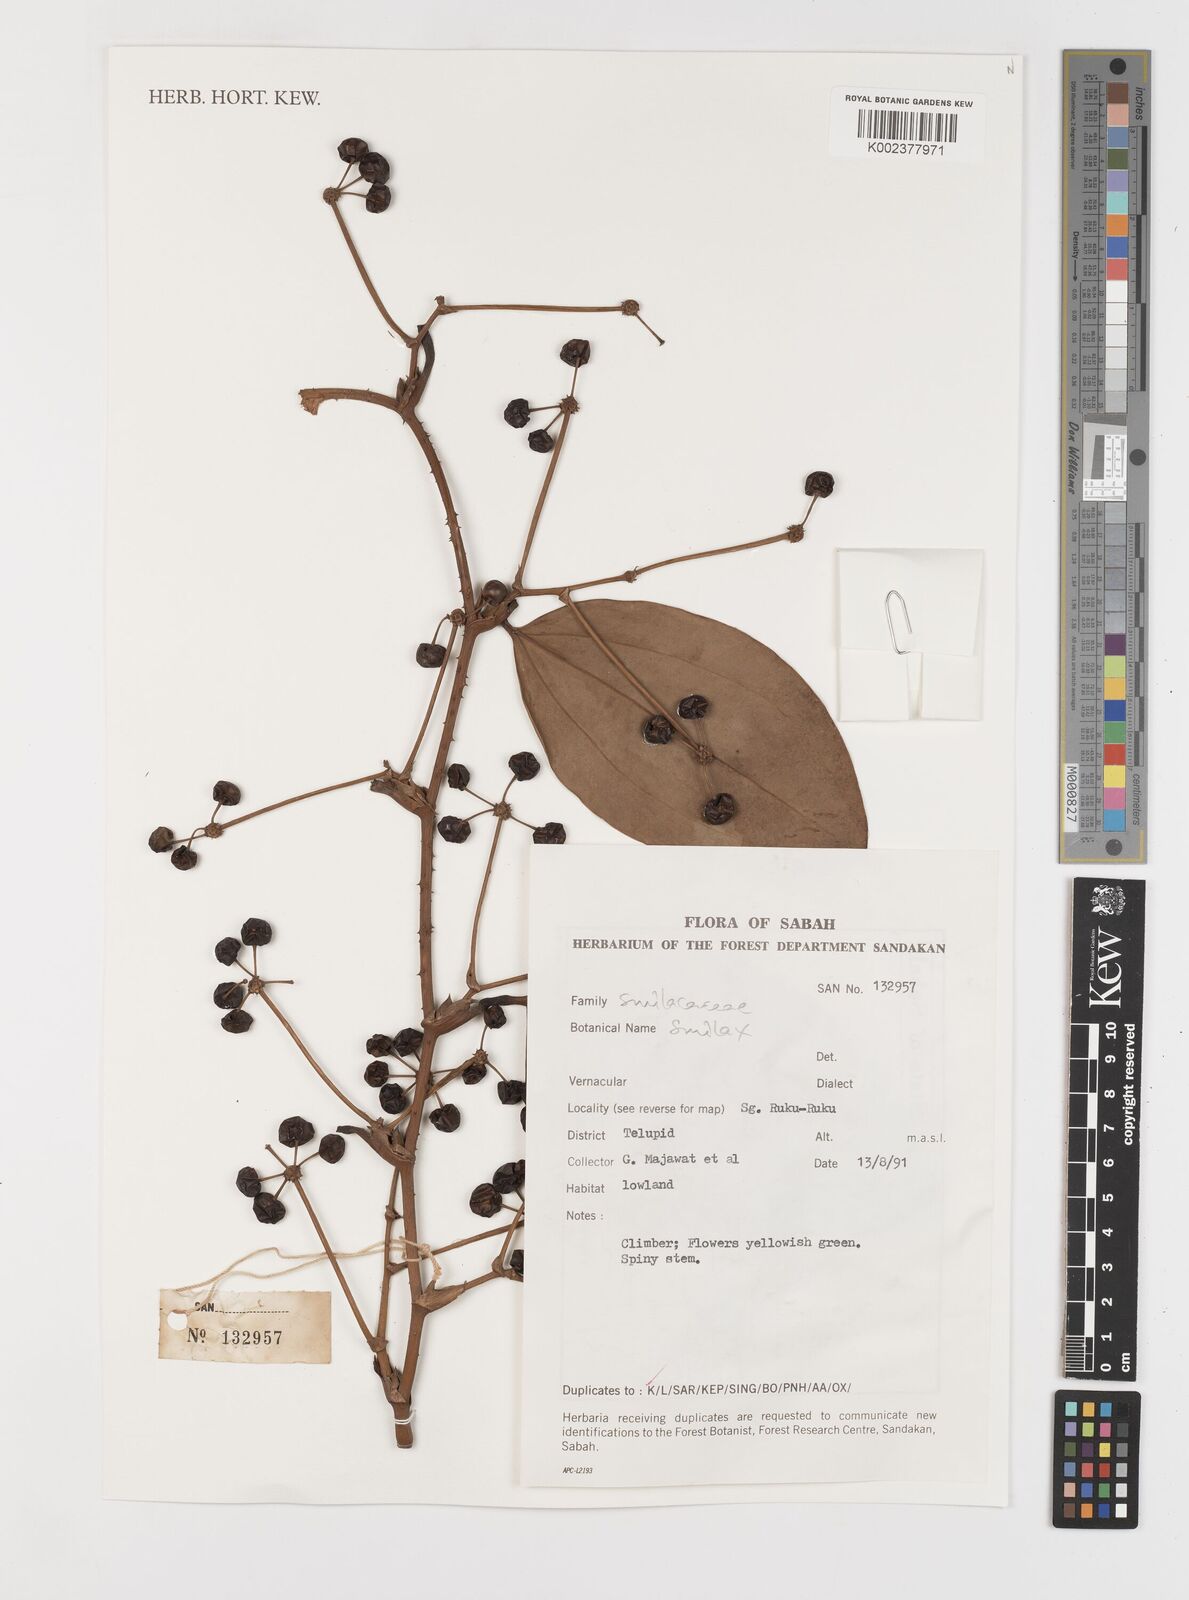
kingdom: Plantae
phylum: Tracheophyta
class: Liliopsida
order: Liliales
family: Smilacaceae
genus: Smilax
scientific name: Smilax
